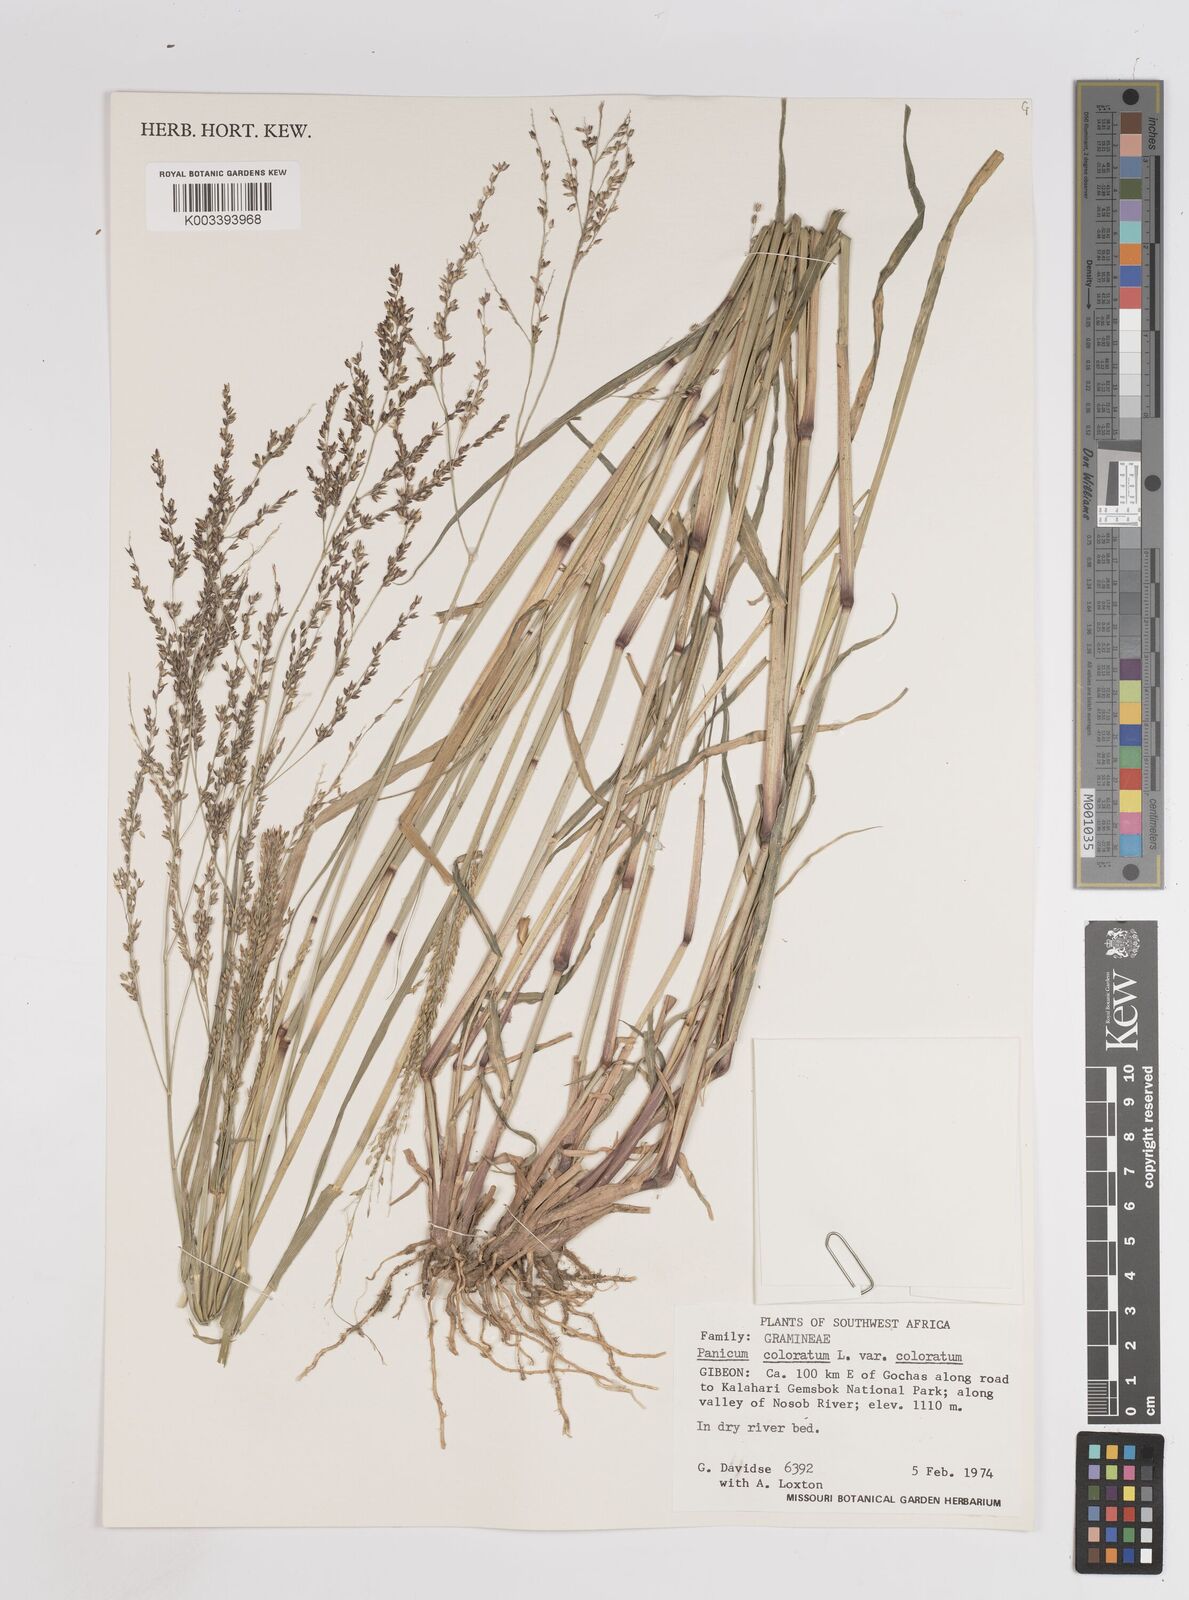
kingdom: Plantae
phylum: Tracheophyta
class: Liliopsida
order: Poales
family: Poaceae
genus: Panicum
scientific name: Panicum coloratum
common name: Kleingrass
